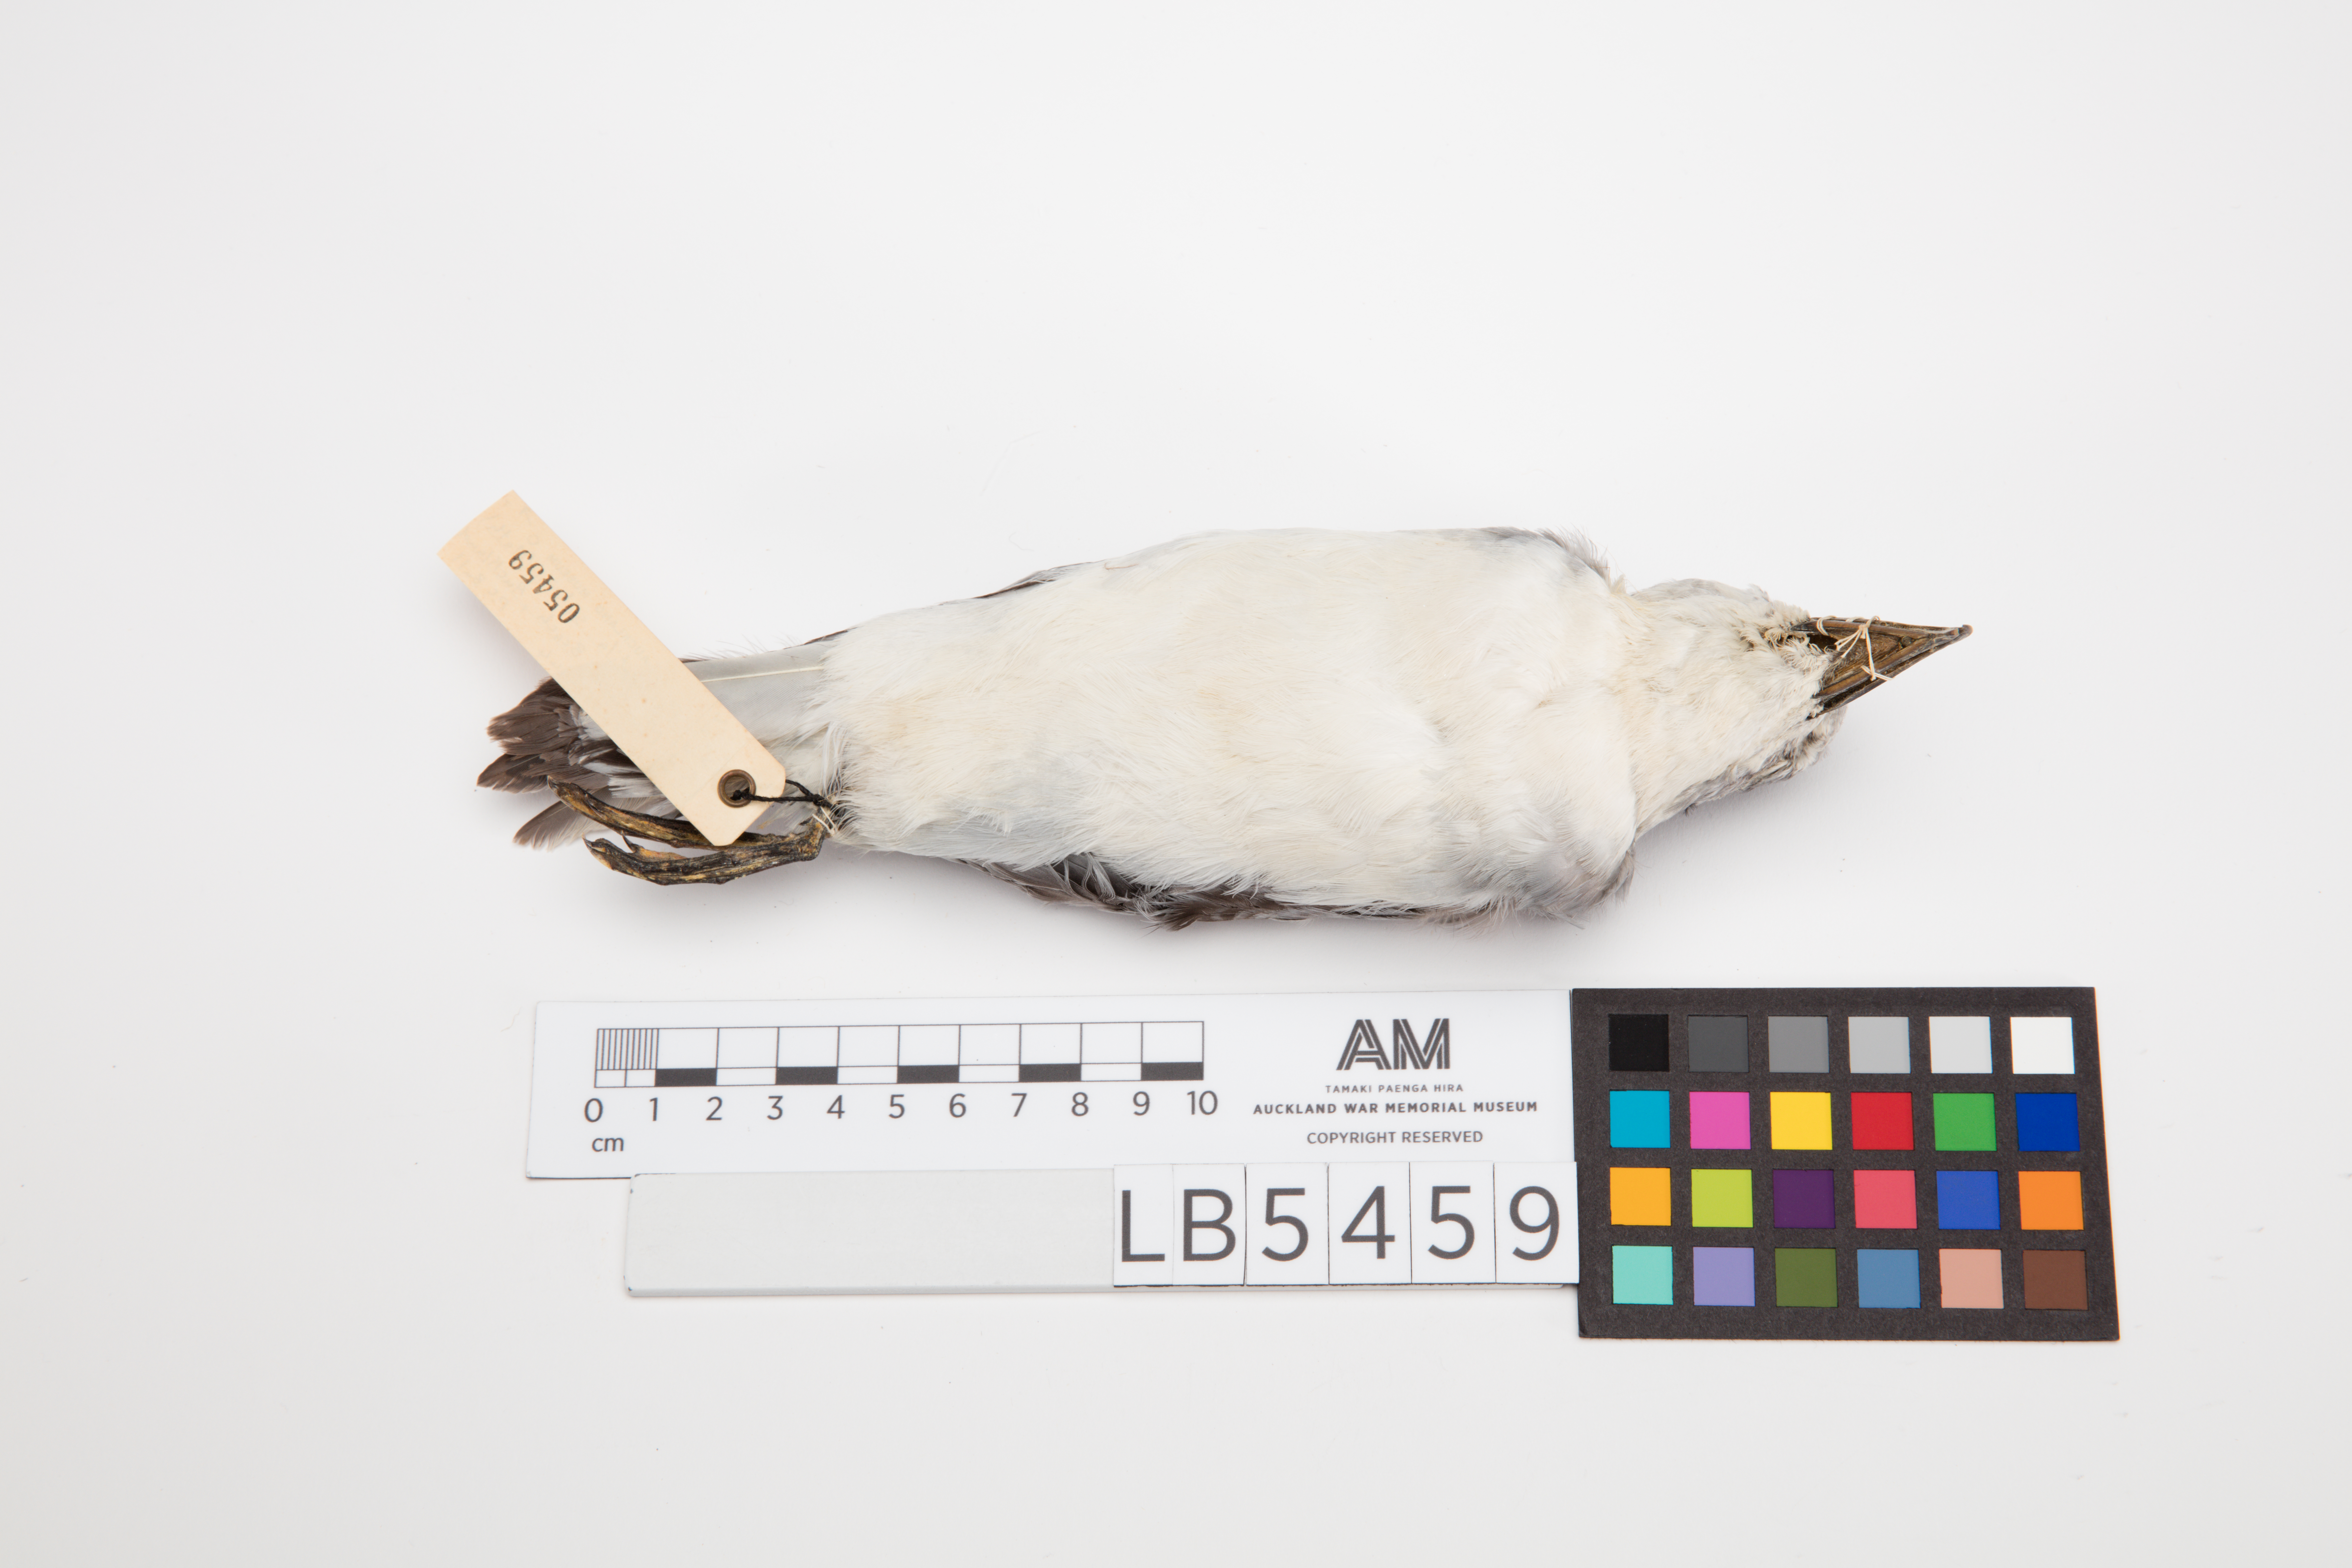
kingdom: Animalia
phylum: Chordata
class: Aves
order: Procellariiformes
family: Procellariidae
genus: Pachyptila
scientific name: Pachyptila salvini
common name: Salvin's prion
